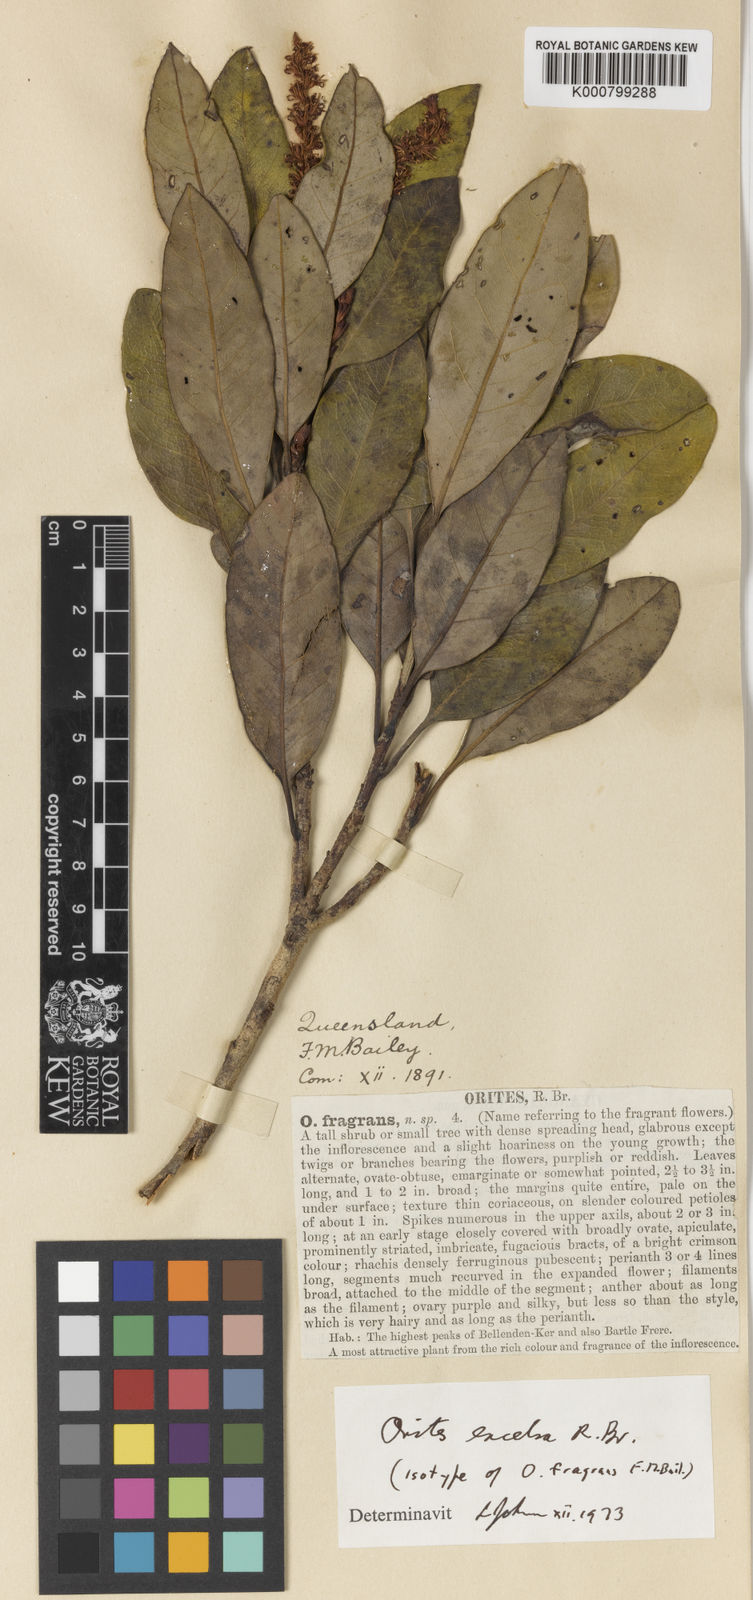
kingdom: Plantae
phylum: Tracheophyta
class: Magnoliopsida
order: Proteales
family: Proteaceae
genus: Orites
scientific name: Orites excelsus
